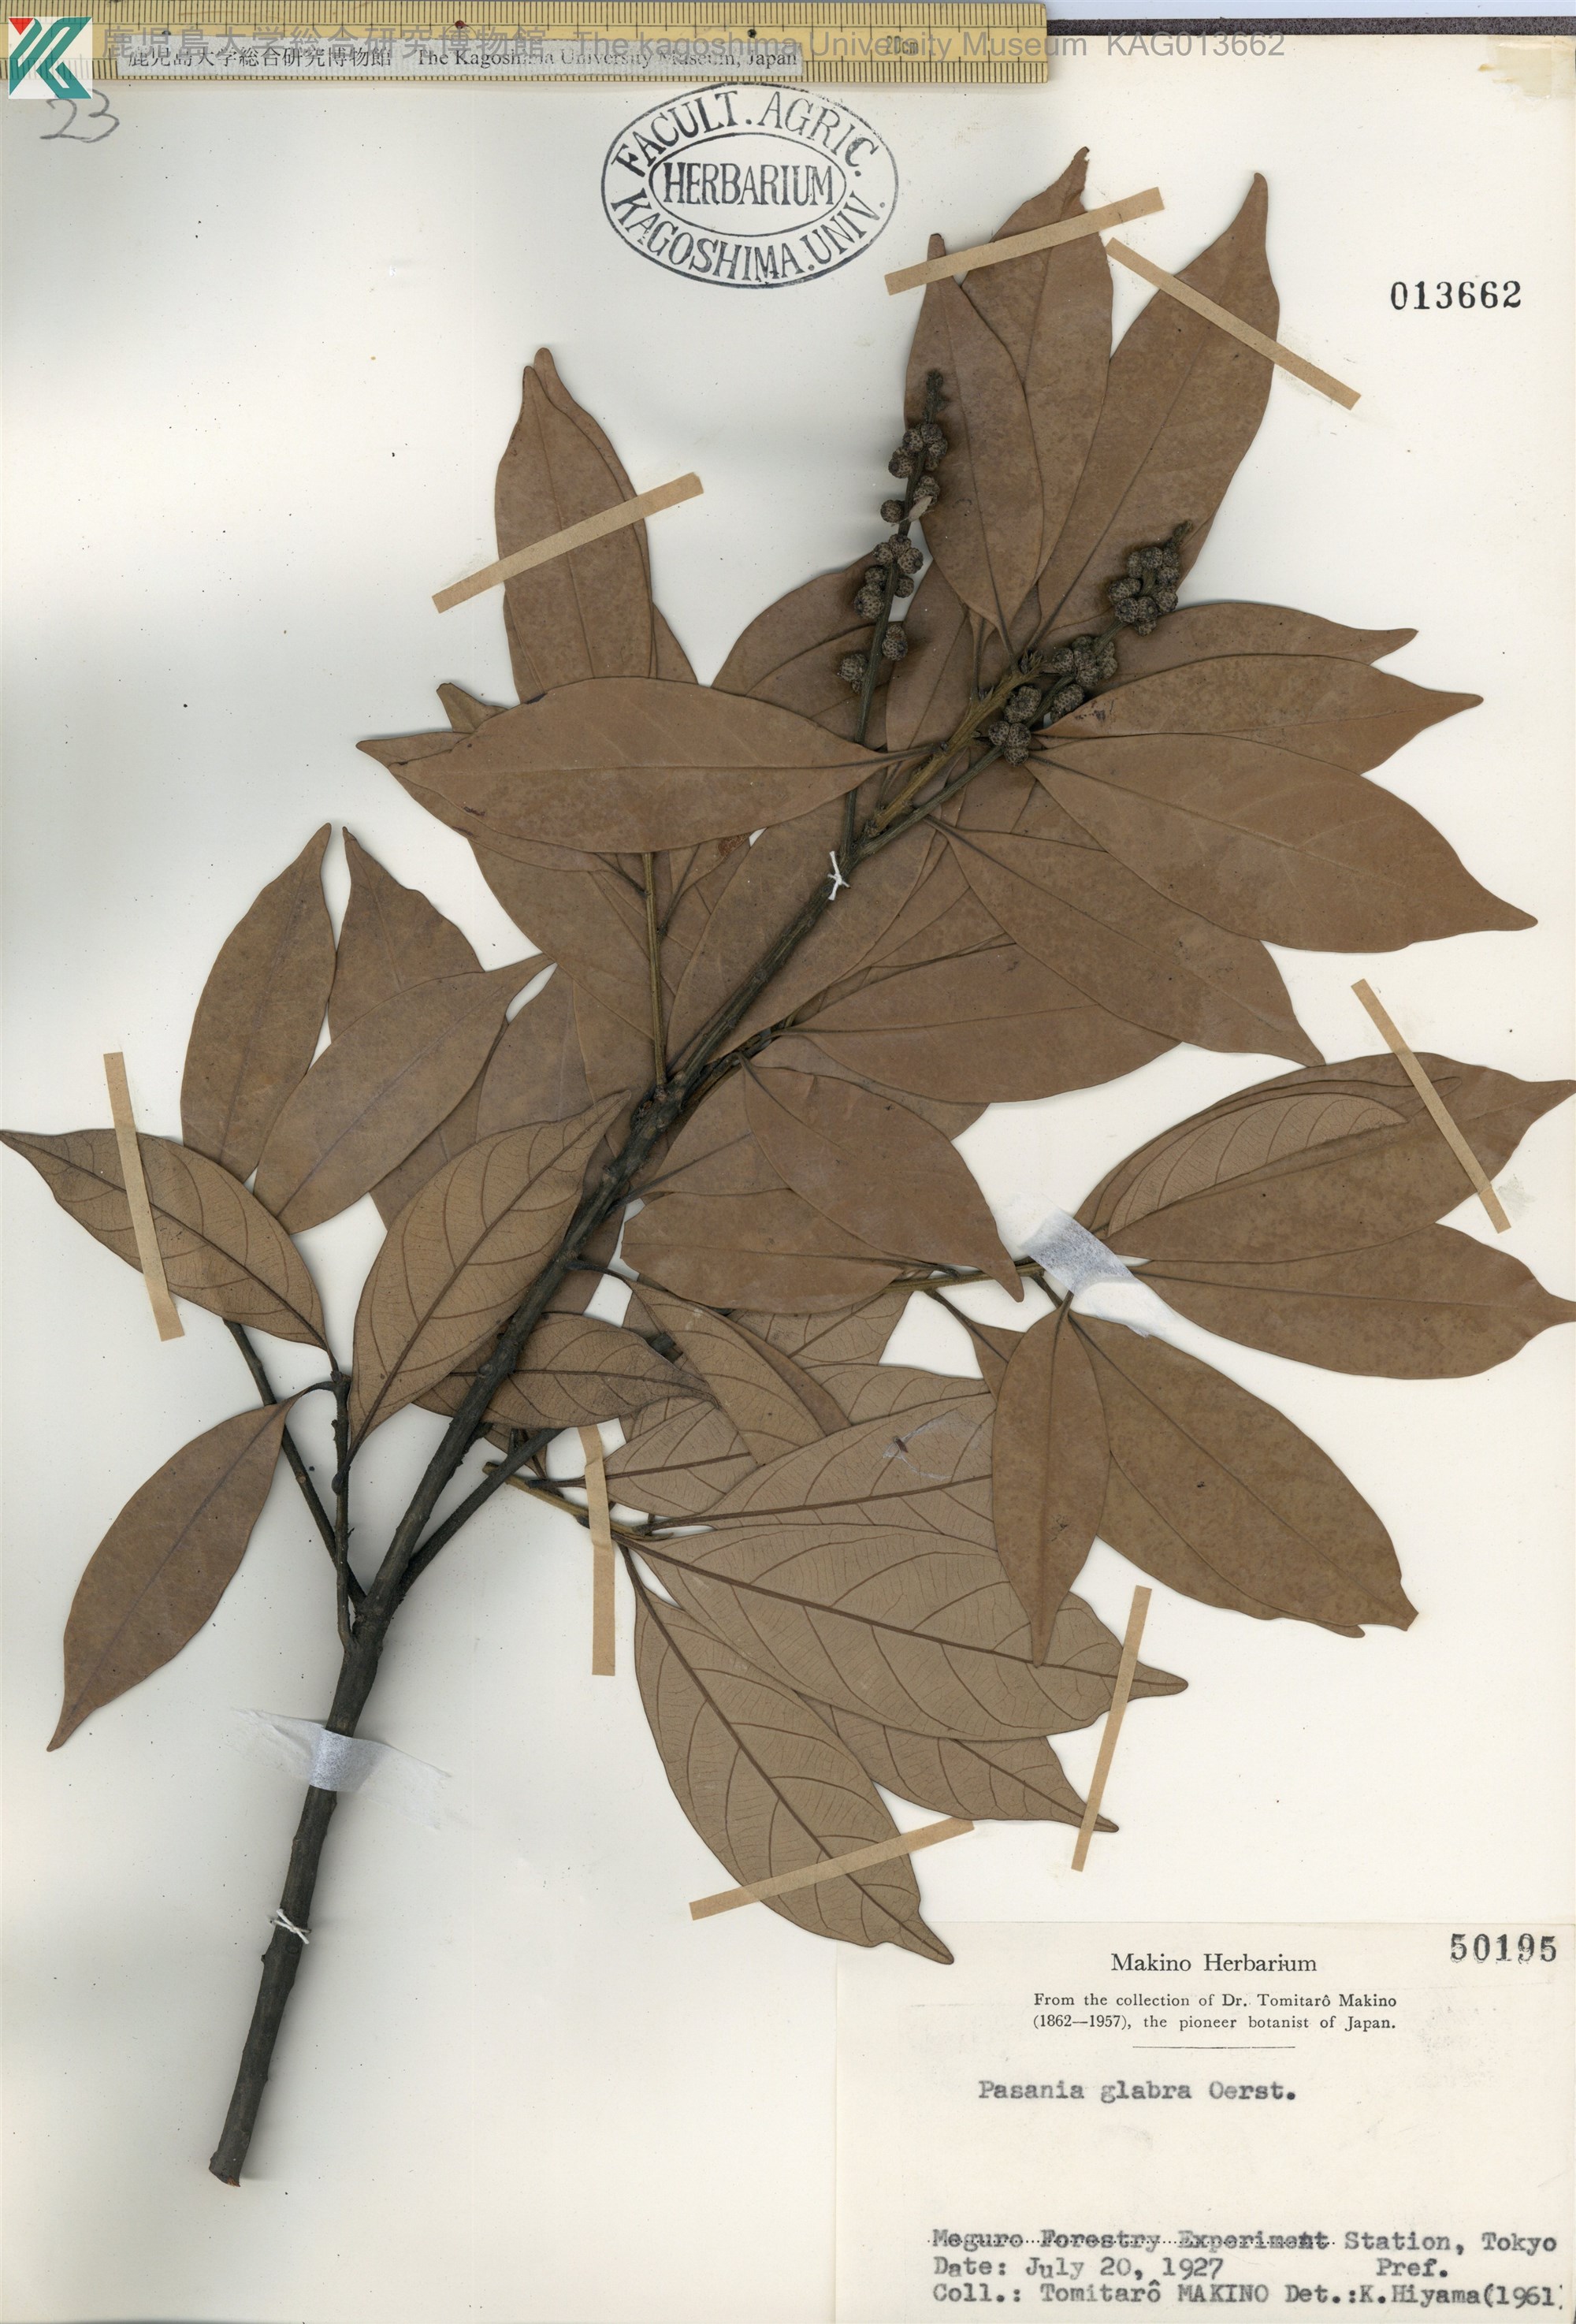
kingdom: Plantae
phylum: Tracheophyta
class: Magnoliopsida
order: Fagales
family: Fagaceae
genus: Lithocarpus
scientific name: Lithocarpus glaber
